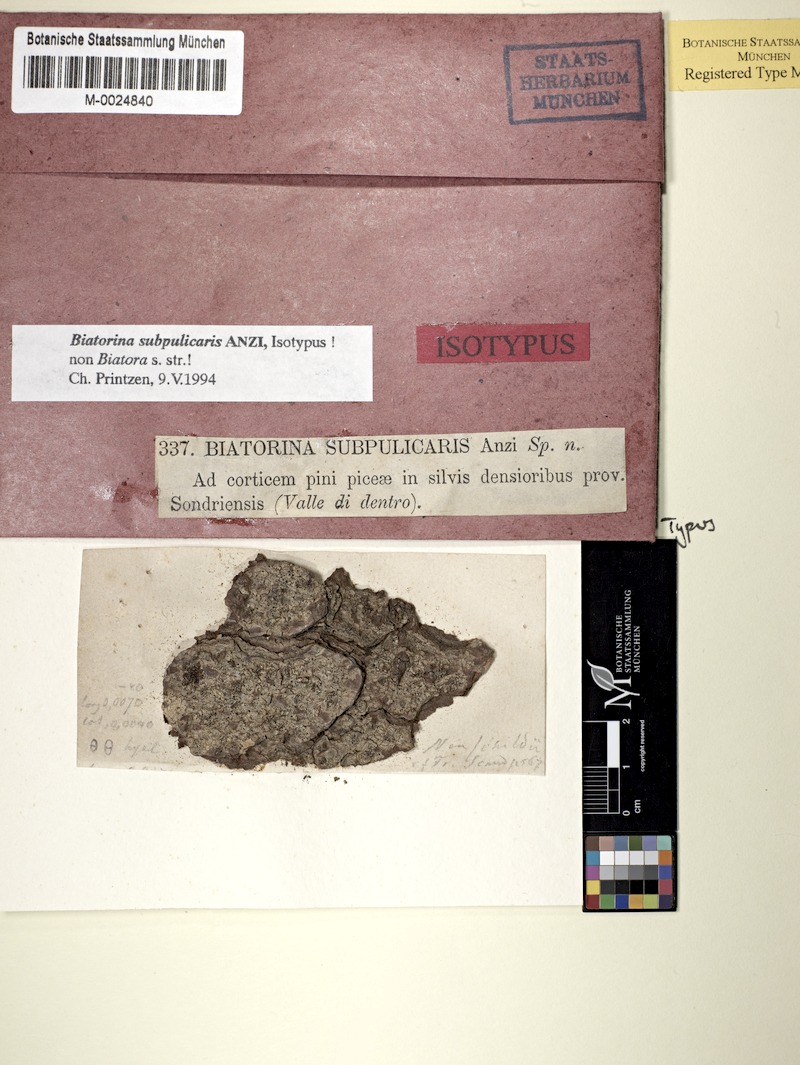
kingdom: Fungi
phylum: Ascomycota
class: Lecanoromycetes
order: Lecanorales
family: Ramalinaceae
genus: Catinaria
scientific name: Catinaria neuschildii
